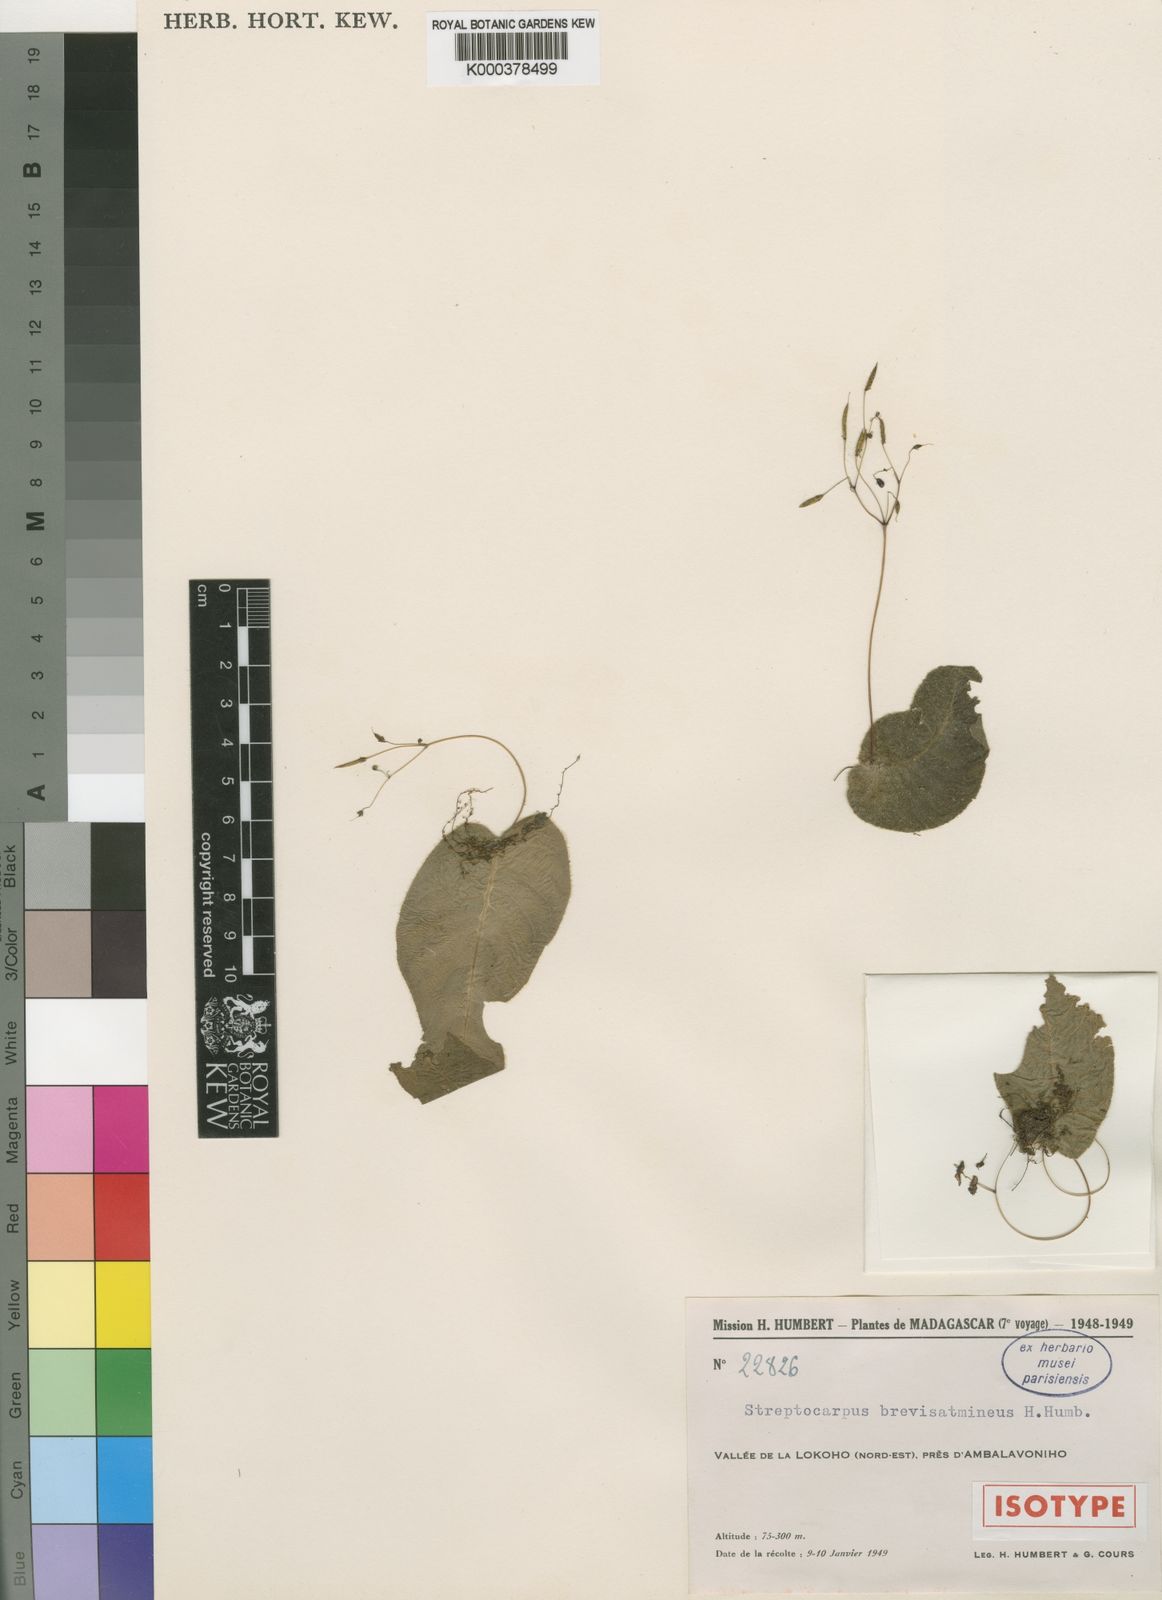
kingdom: Plantae
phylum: Tracheophyta
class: Magnoliopsida
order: Lamiales
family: Gesneriaceae
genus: Streptocarpus
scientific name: Streptocarpus brevistamineus
